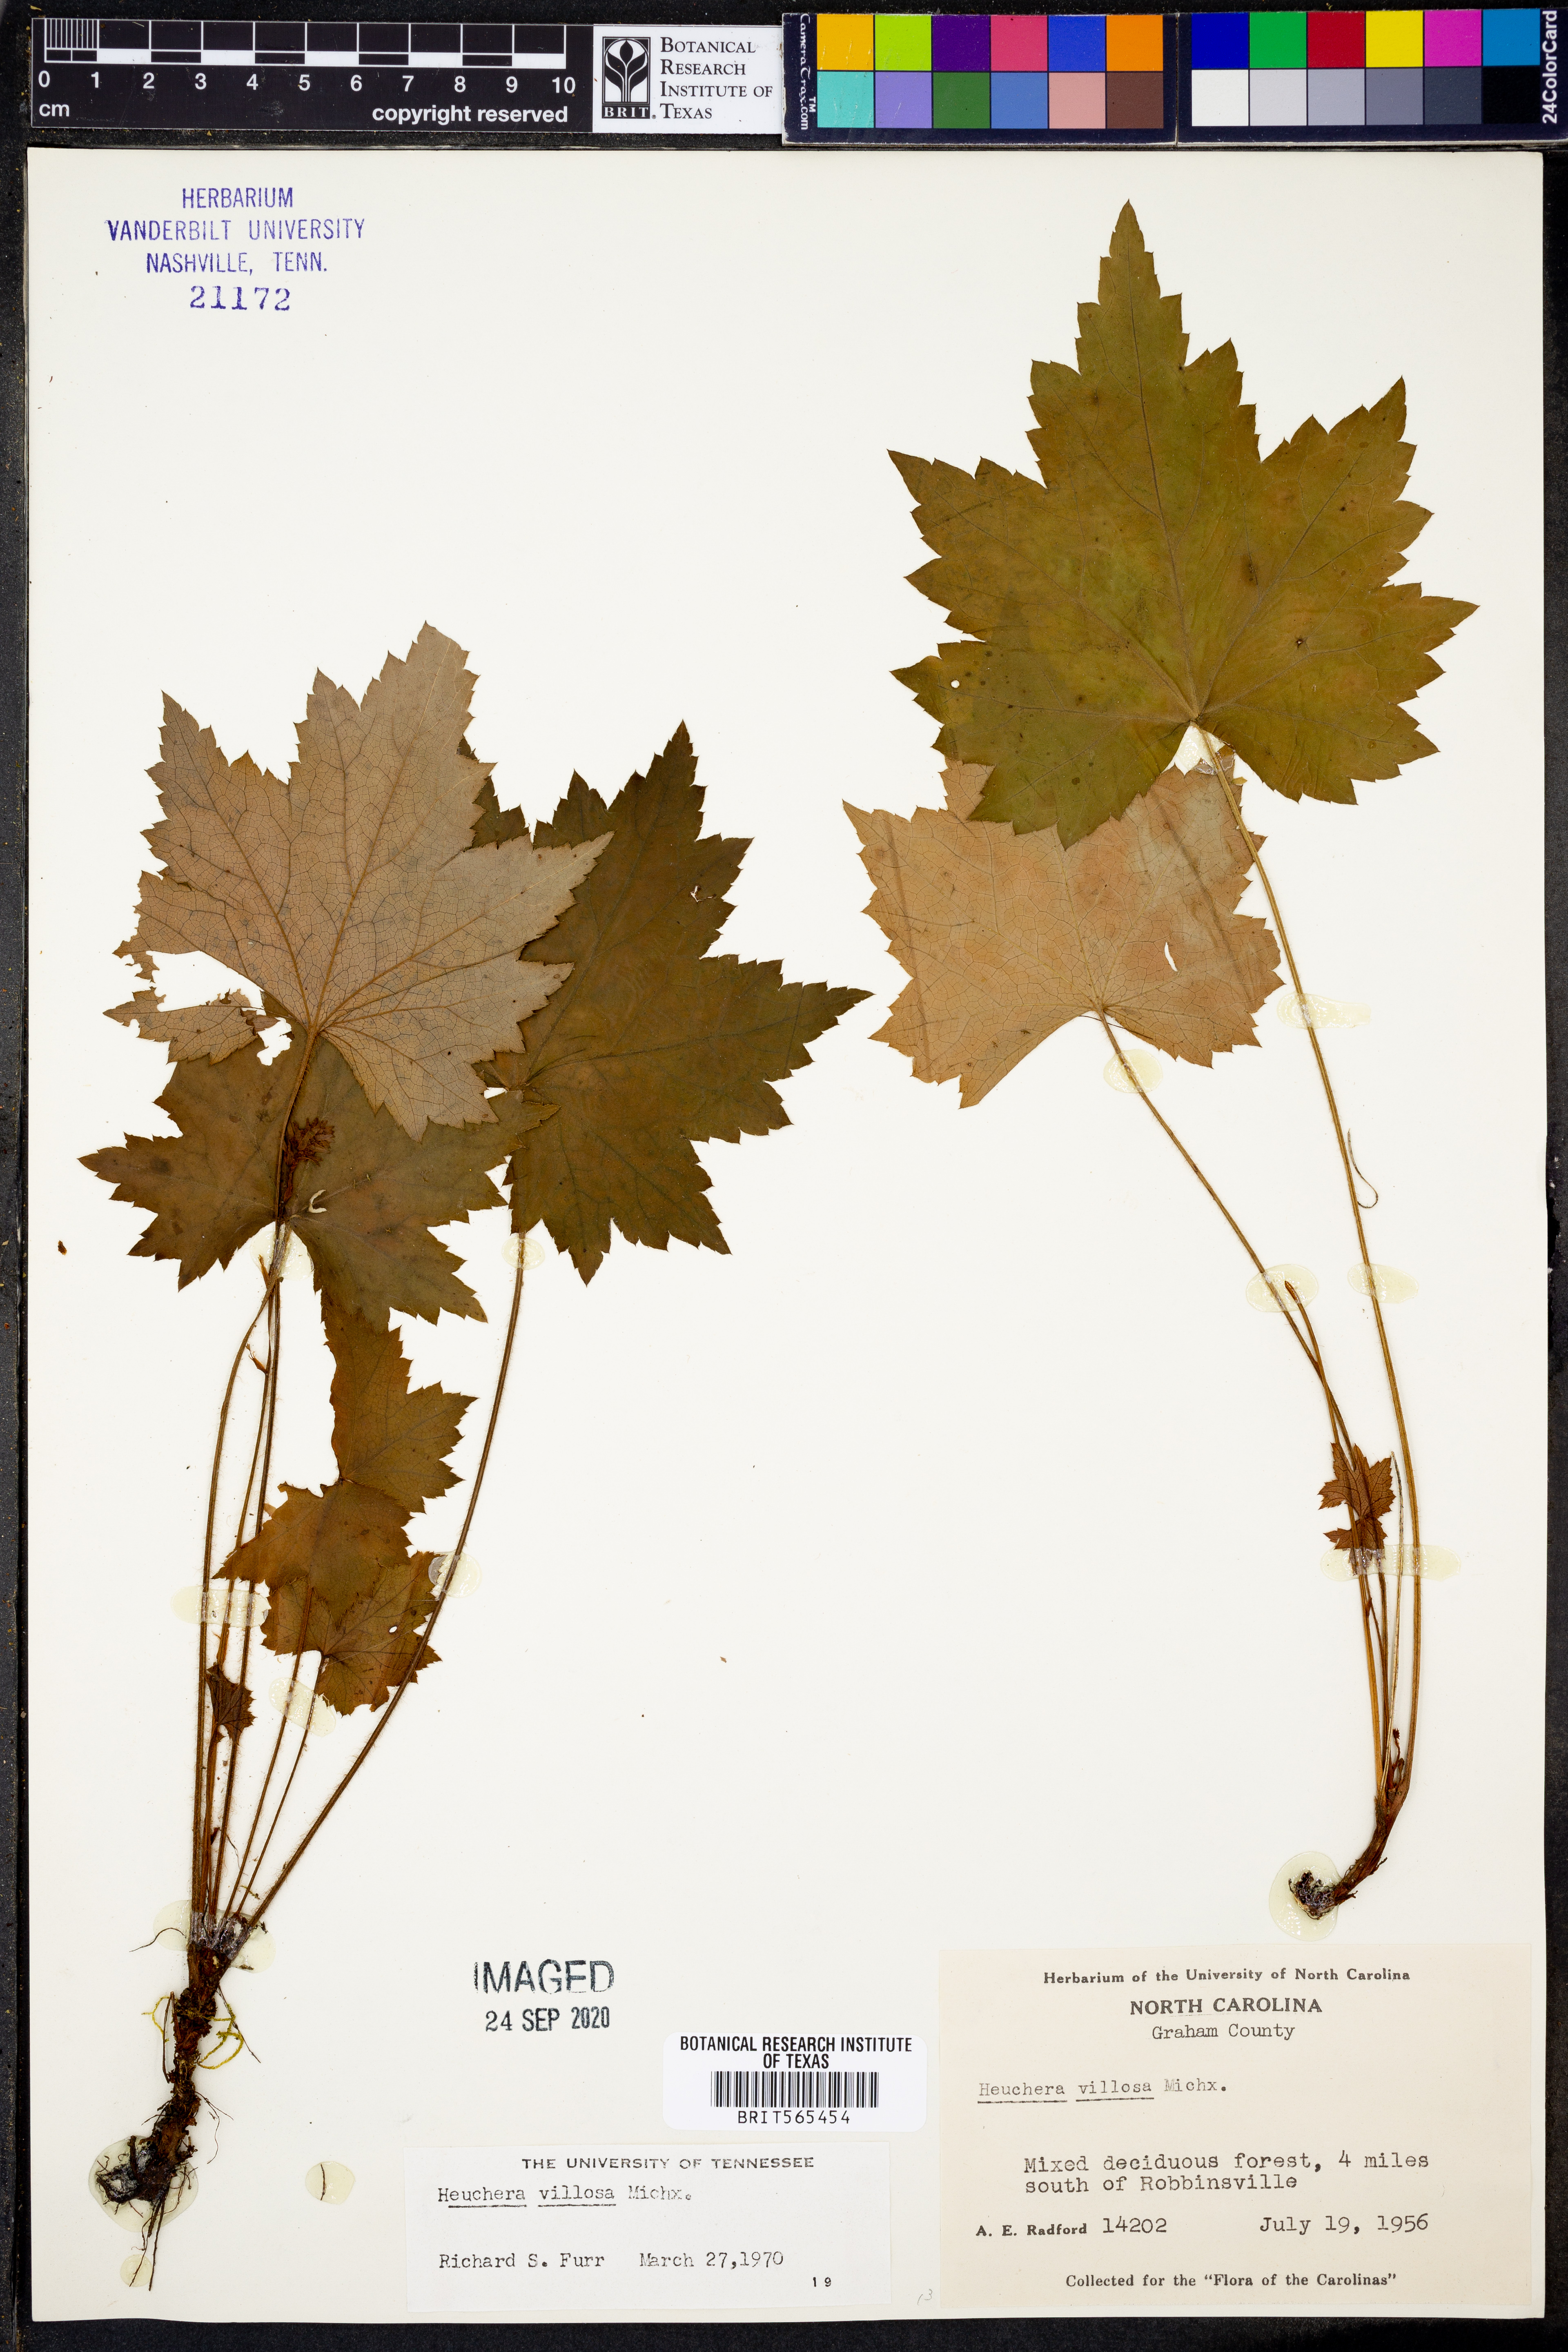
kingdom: Plantae
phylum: Tracheophyta
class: Magnoliopsida
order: Saxifragales
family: Saxifragaceae
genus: Heuchera
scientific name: Heuchera villosa
